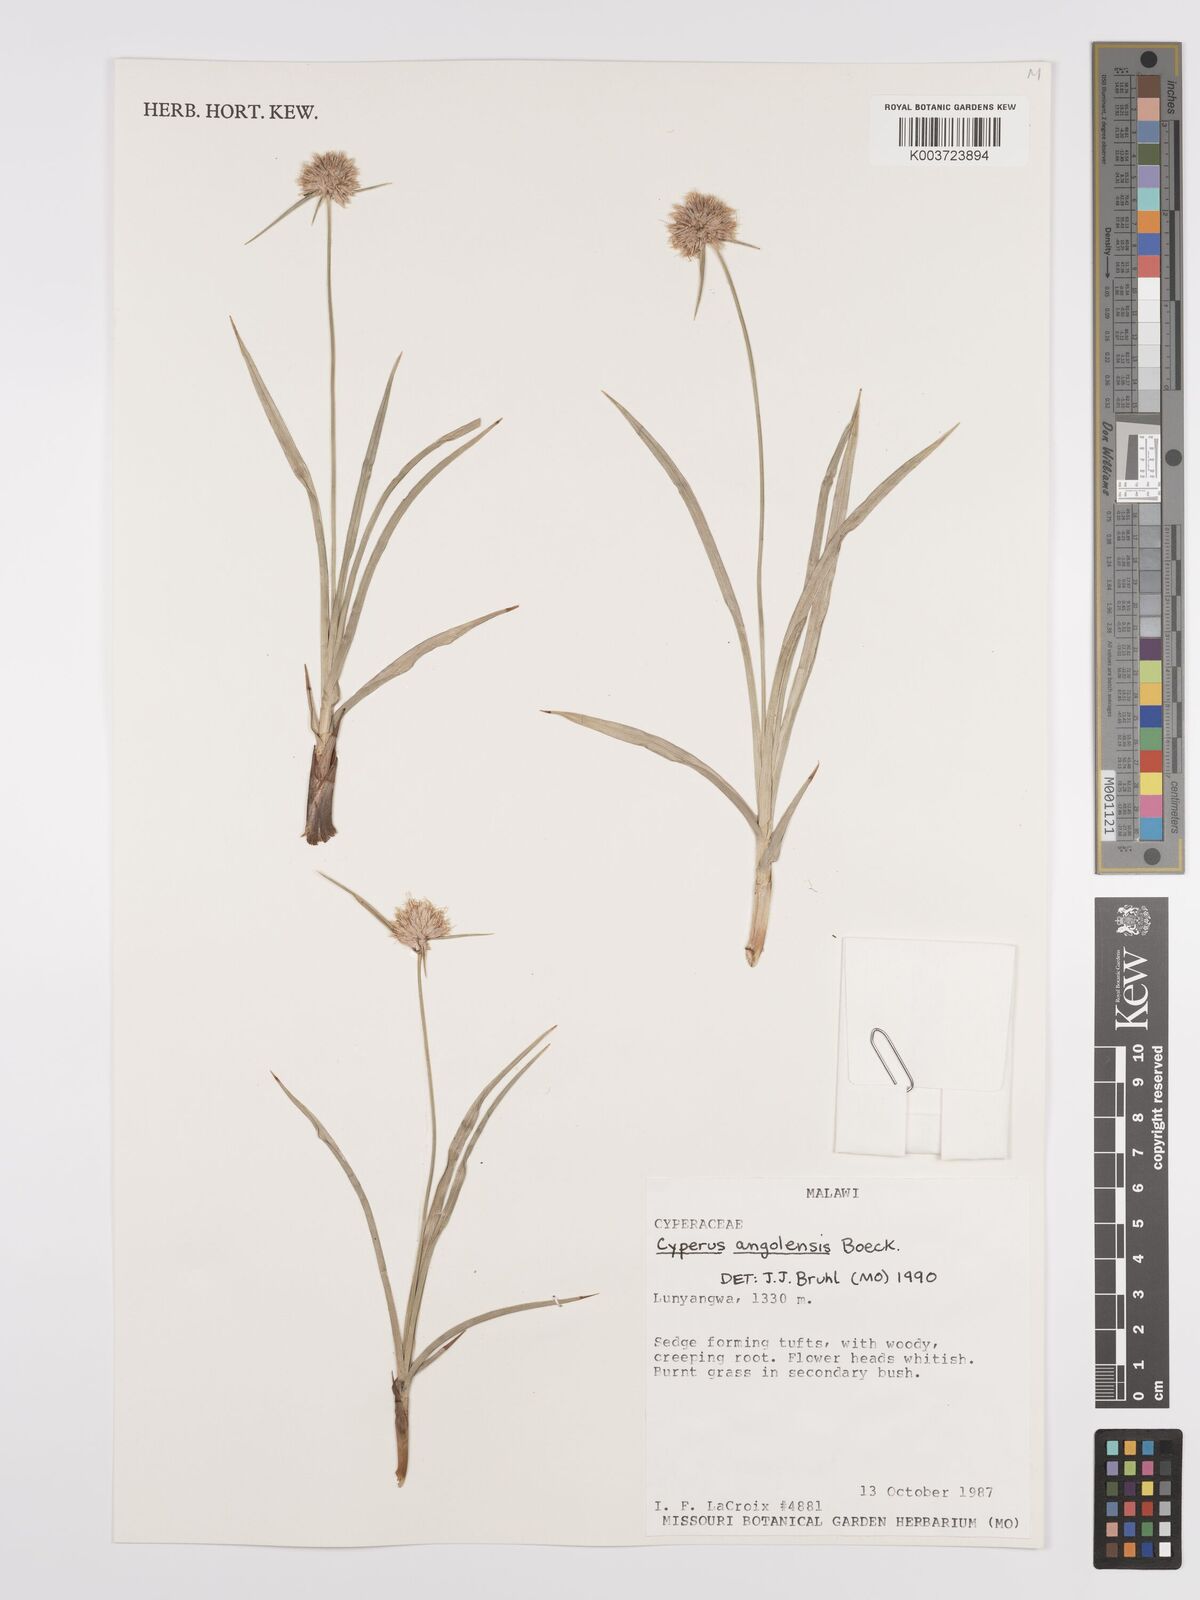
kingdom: Plantae
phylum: Tracheophyta
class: Liliopsida
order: Poales
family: Cyperaceae
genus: Cyperus
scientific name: Cyperus angolensis
